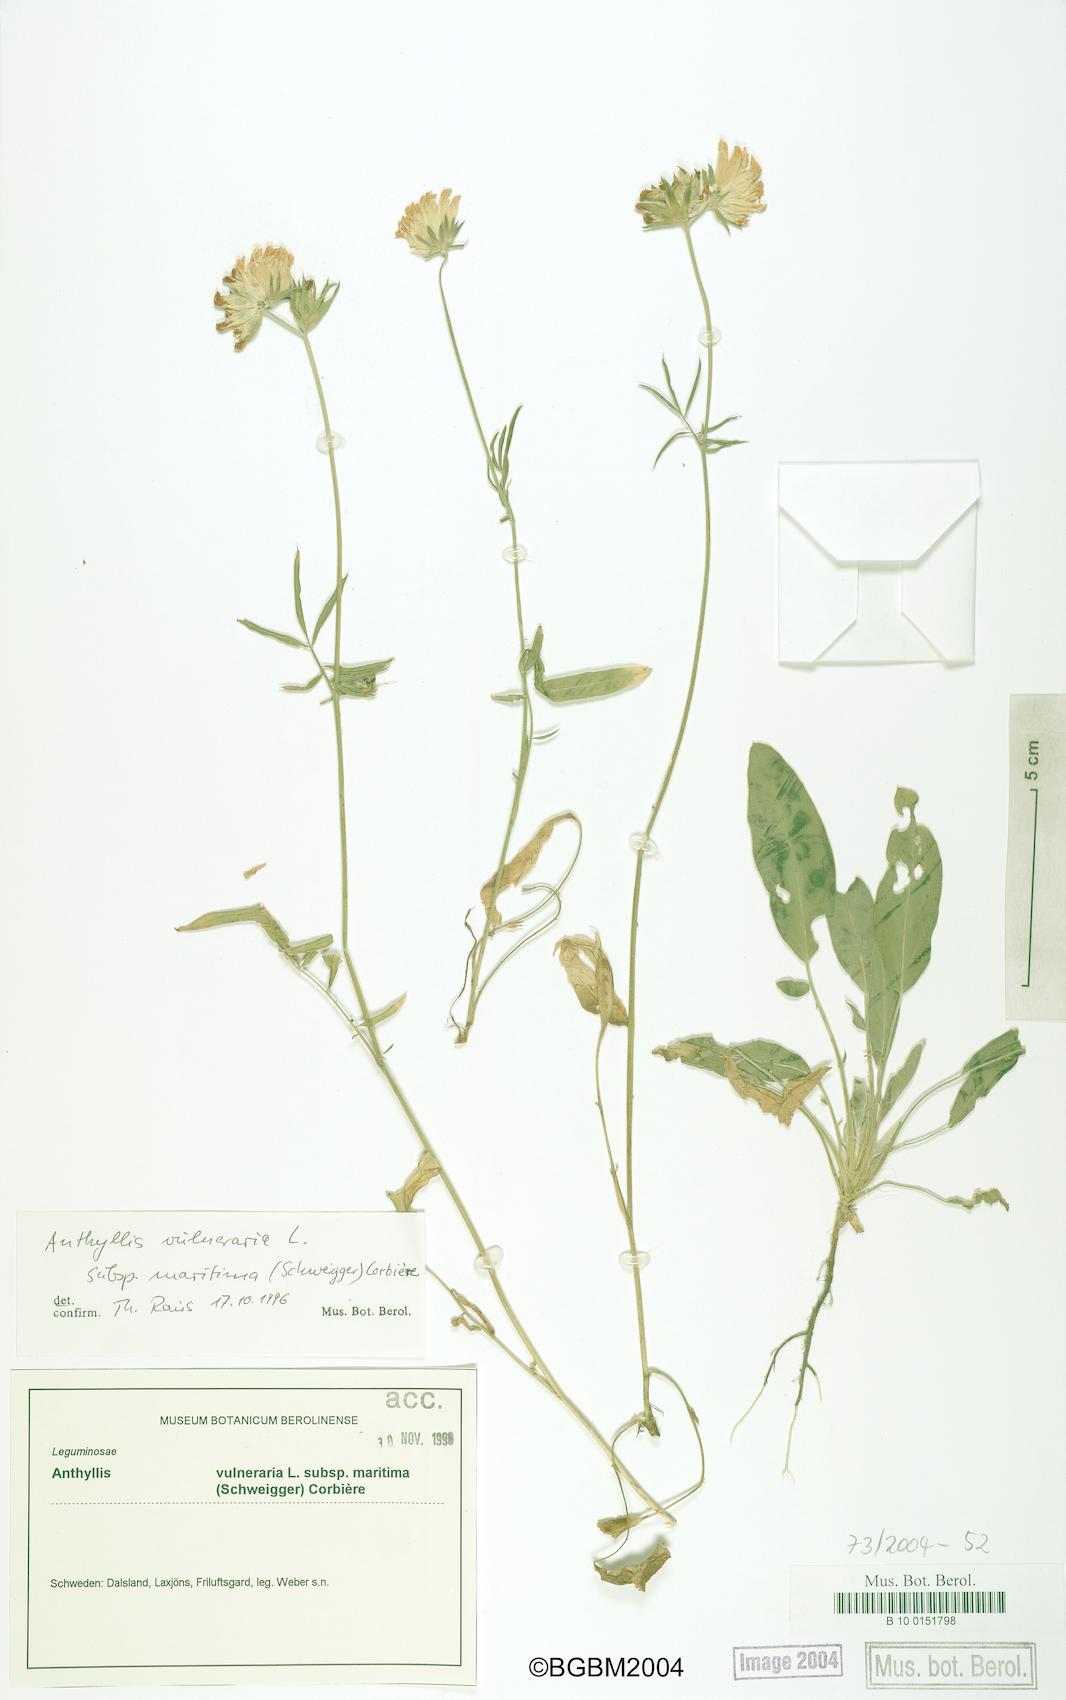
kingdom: Plantae
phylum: Tracheophyta
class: Magnoliopsida
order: Fabales
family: Fabaceae
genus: Anthyllis
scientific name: Anthyllis vulneraria
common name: Kidney vetch
